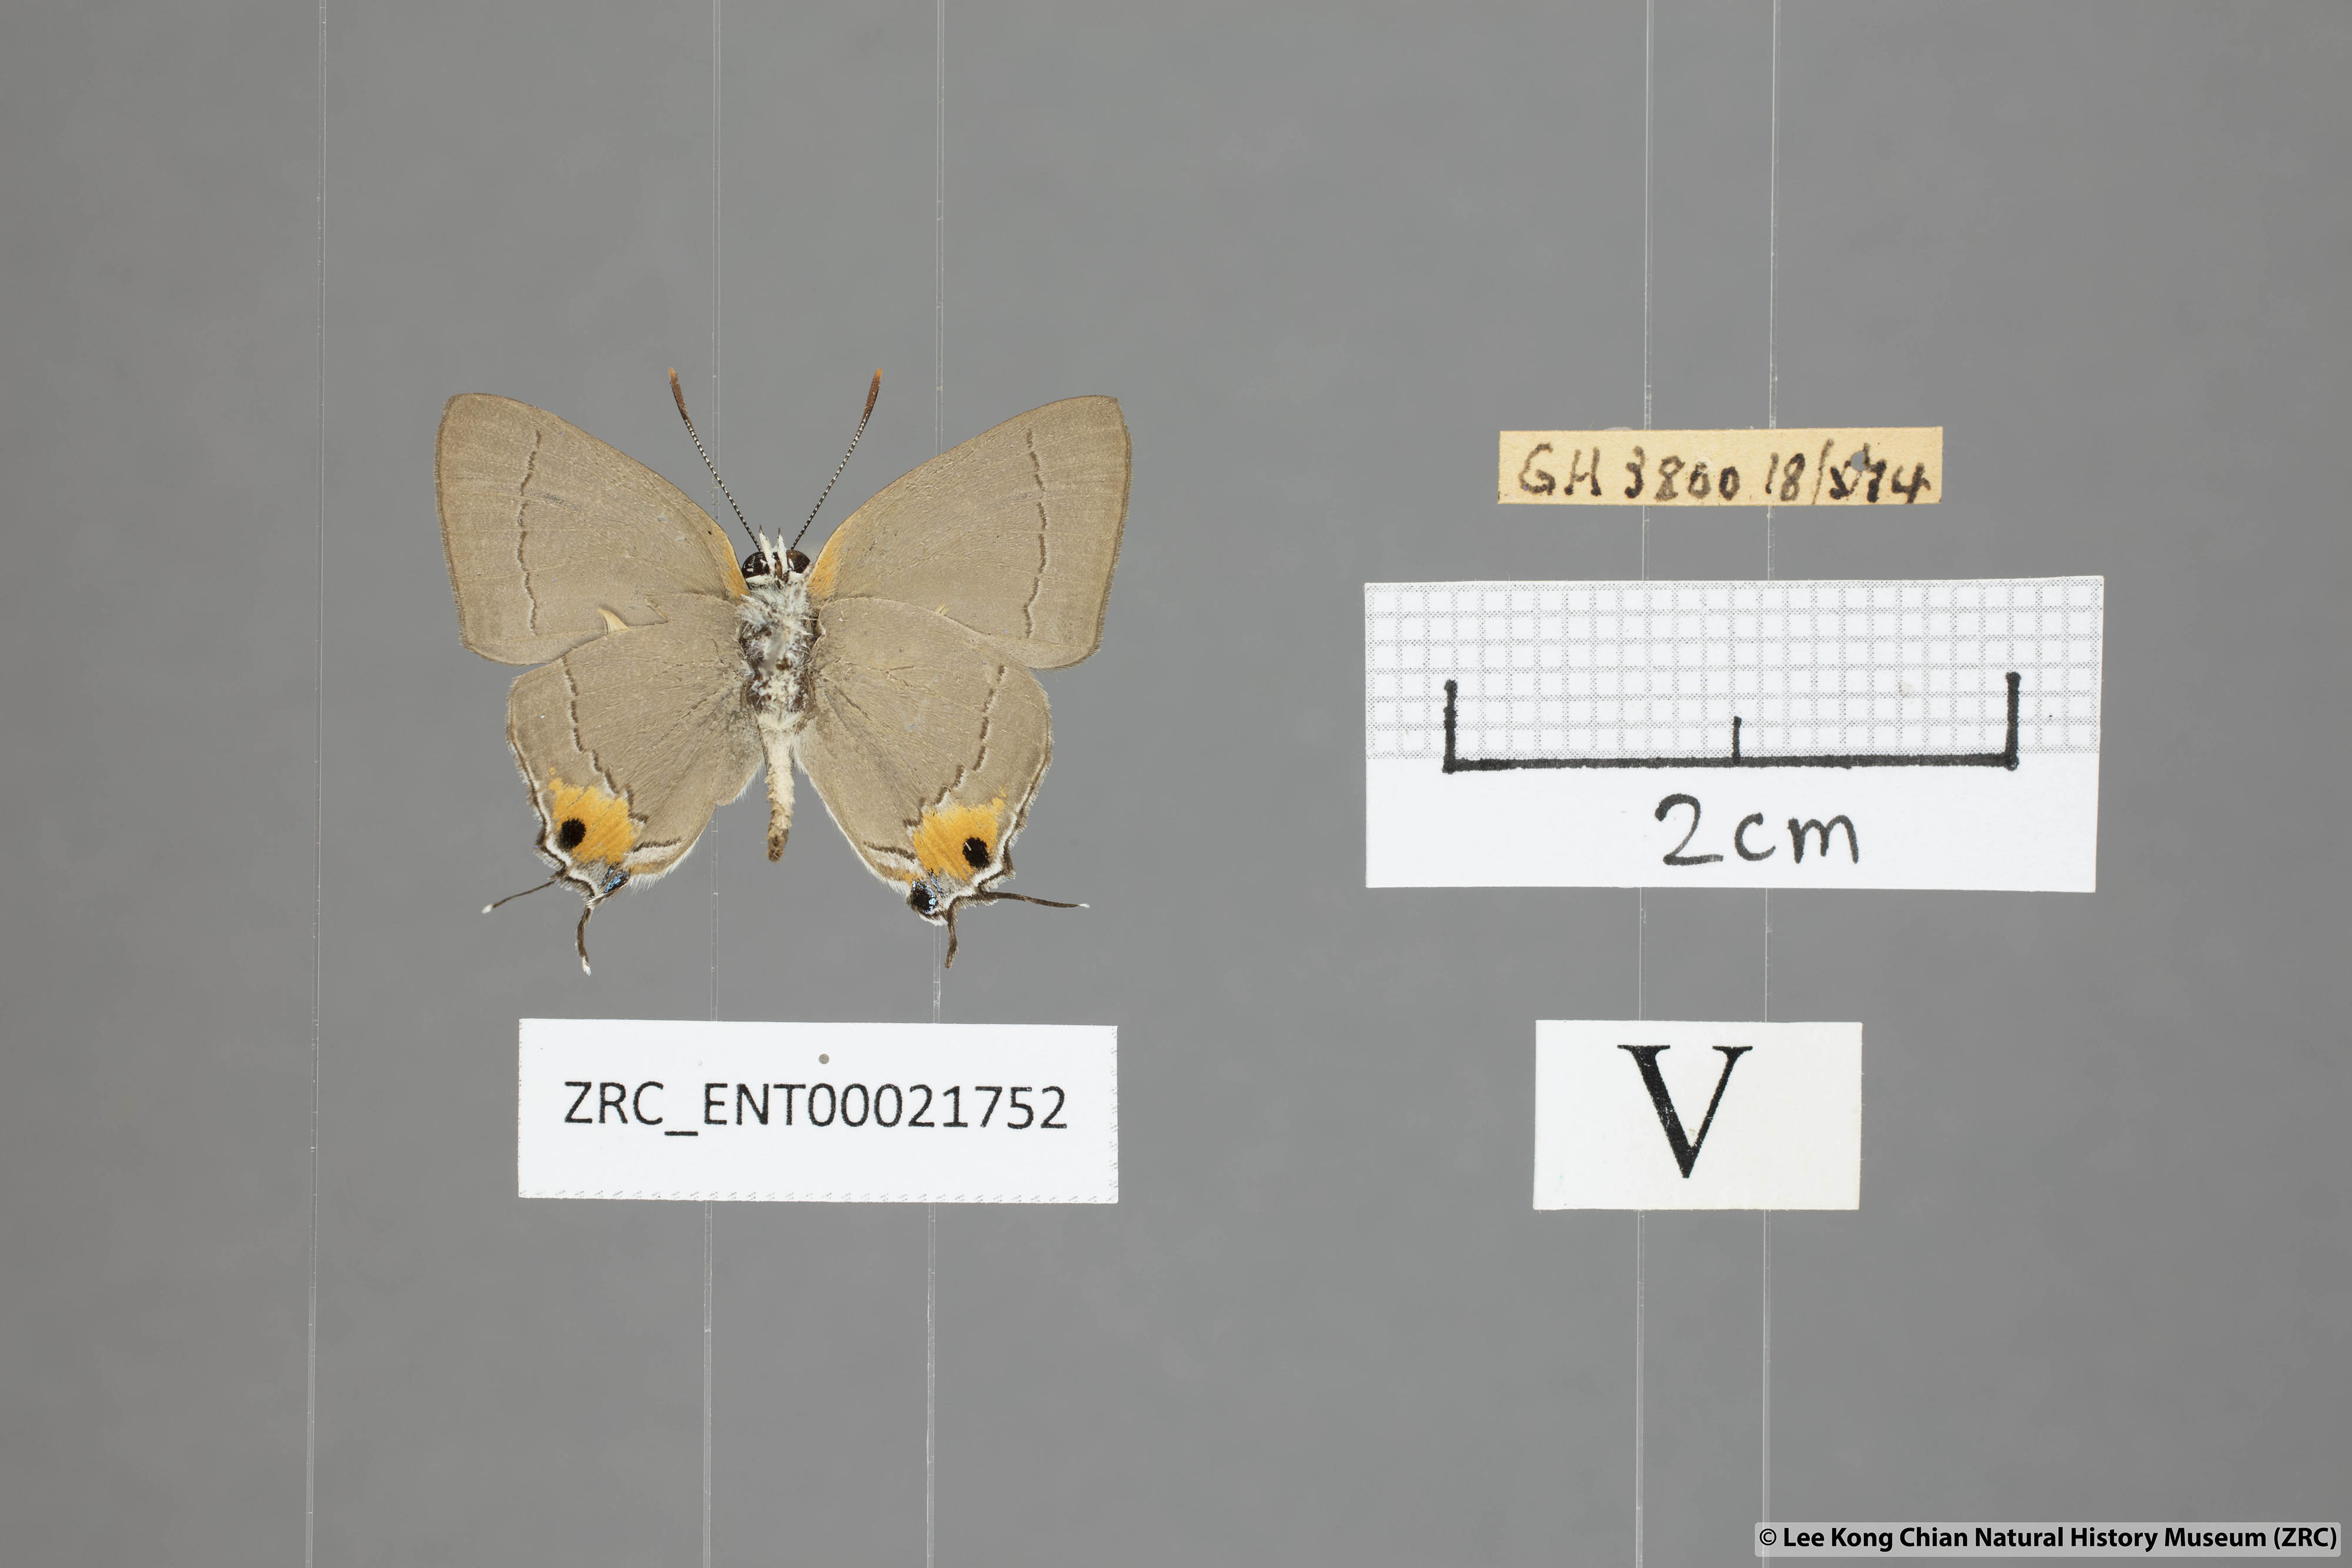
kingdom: Animalia
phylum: Arthropoda
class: Insecta
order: Lepidoptera
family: Lycaenidae
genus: Pratapa
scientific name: Pratapa
